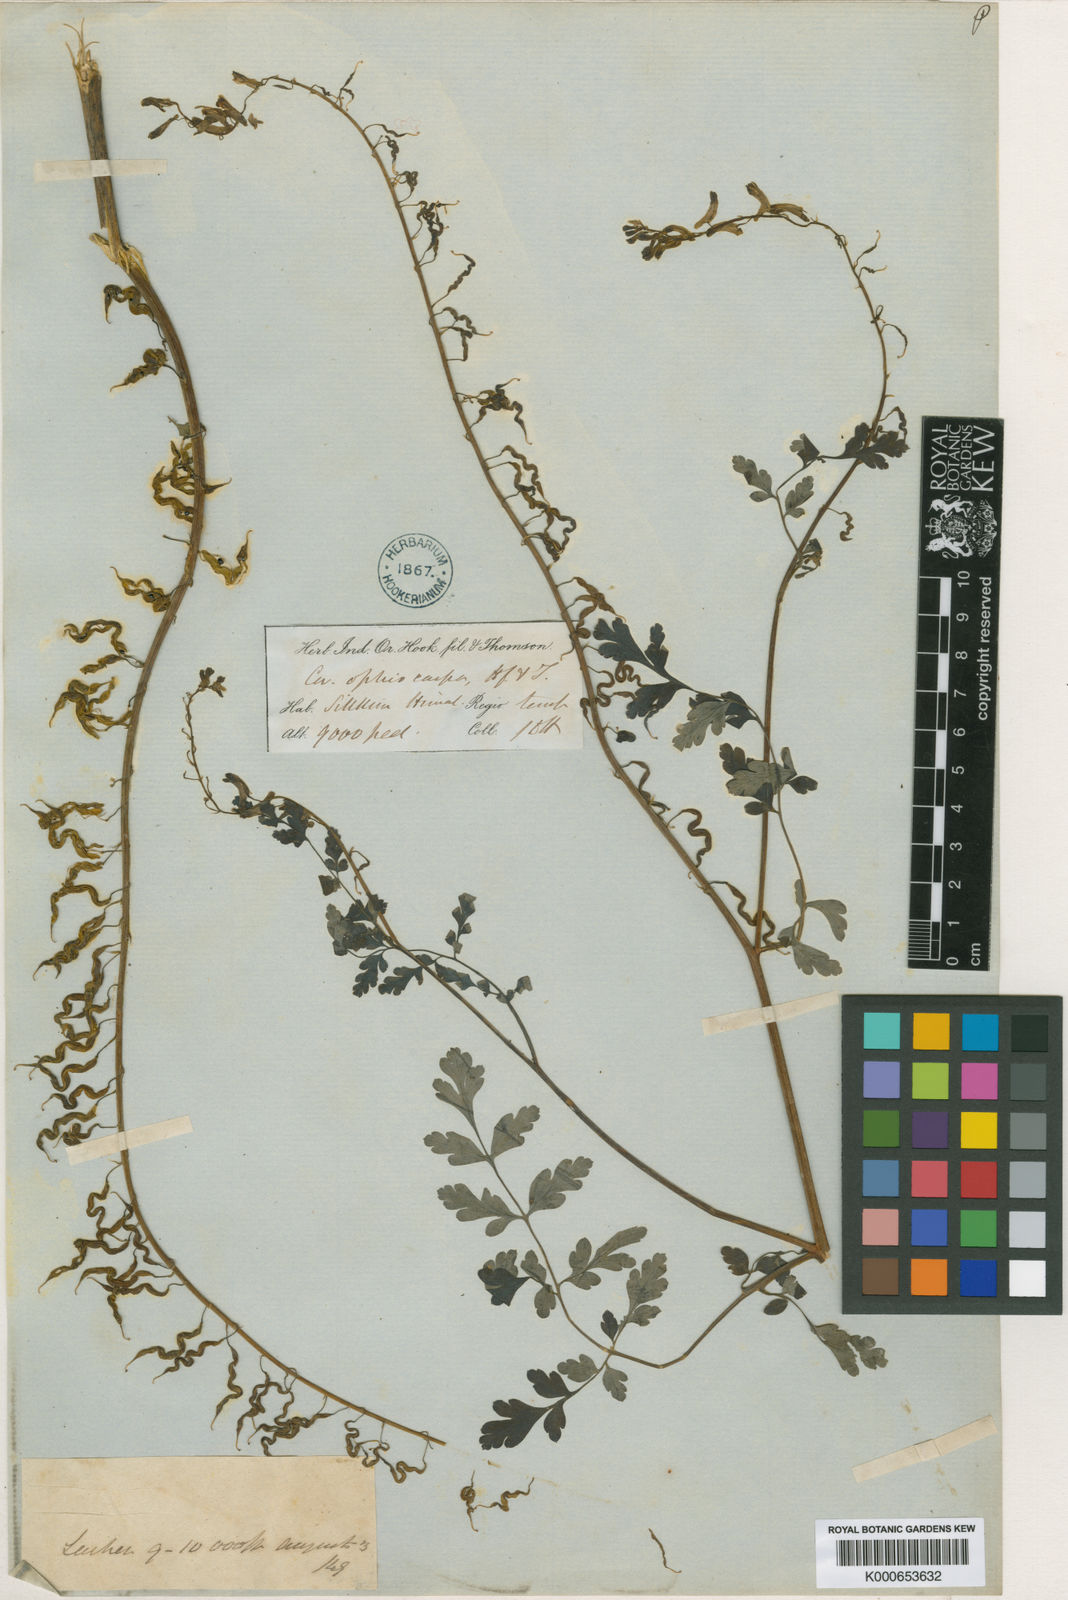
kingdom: Plantae
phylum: Tracheophyta
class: Magnoliopsida
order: Ranunculales
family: Papaveraceae
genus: Corydalis
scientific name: Corydalis ophiocarpa
